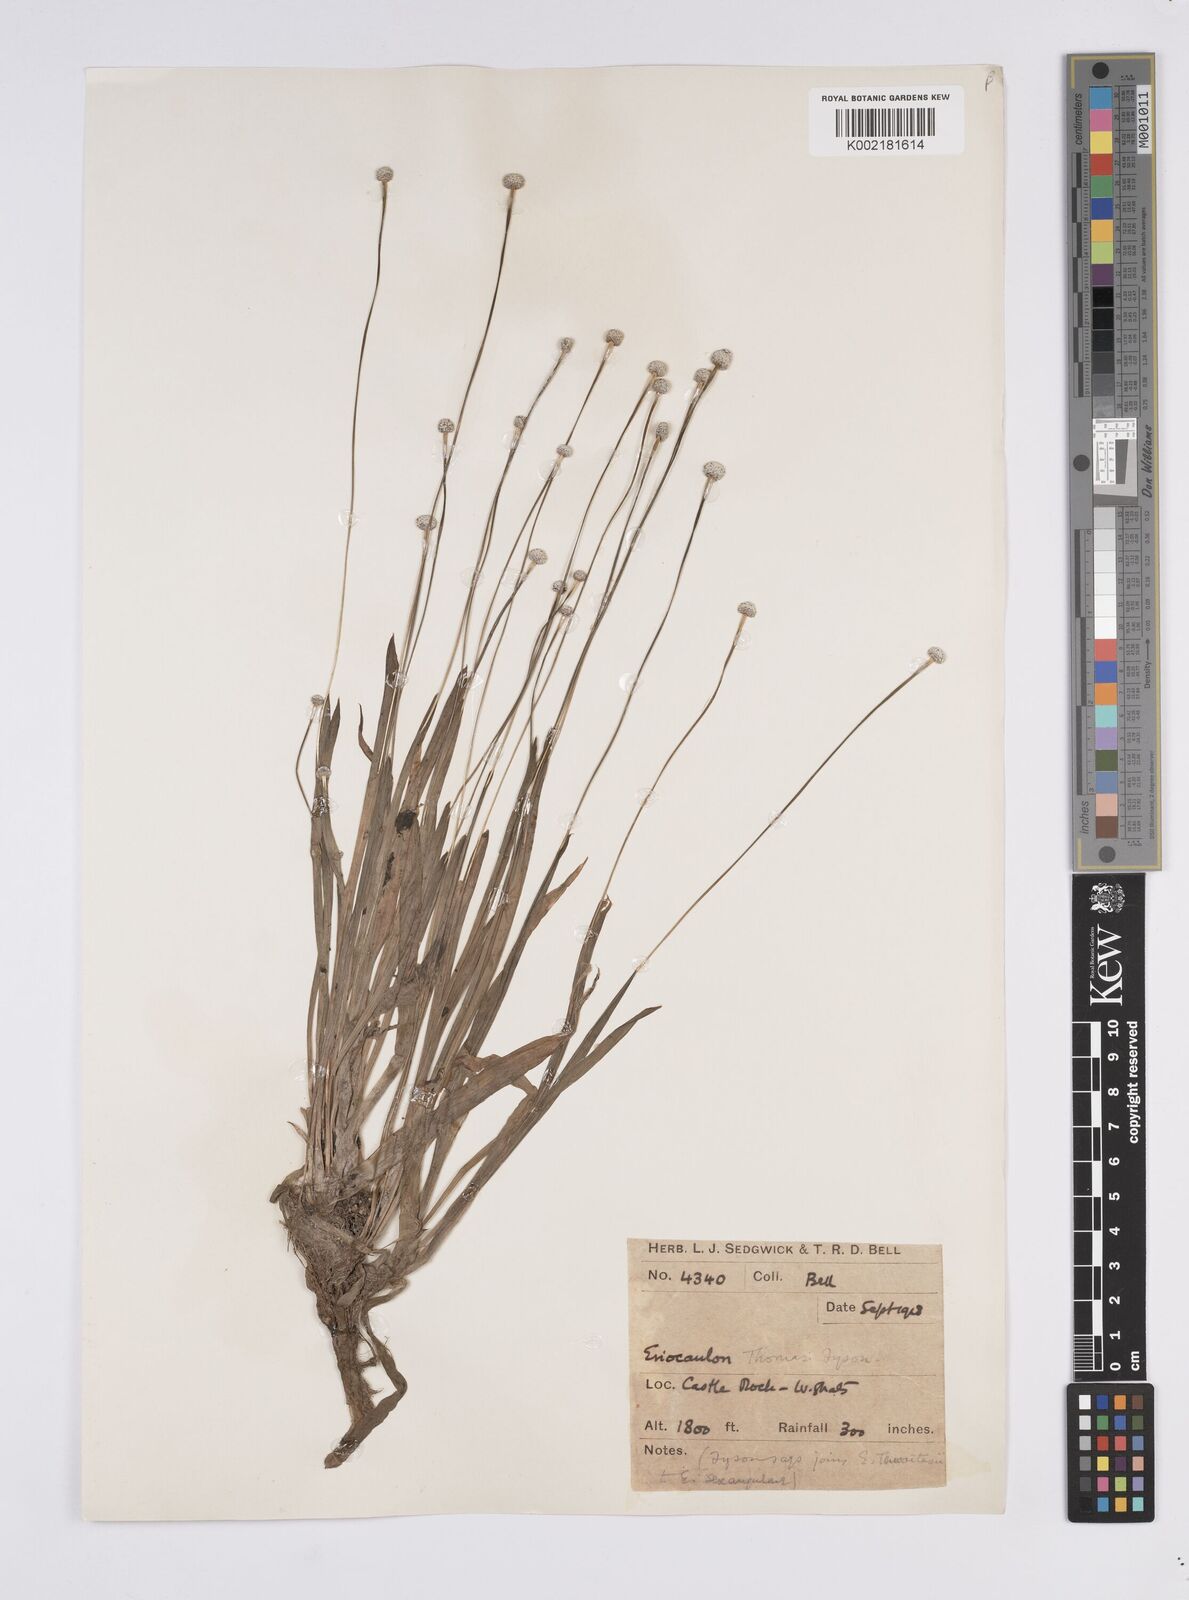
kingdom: Plantae
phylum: Tracheophyta
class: Liliopsida
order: Poales
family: Eriocaulaceae
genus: Eriocaulon
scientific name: Eriocaulon eurypeplon
